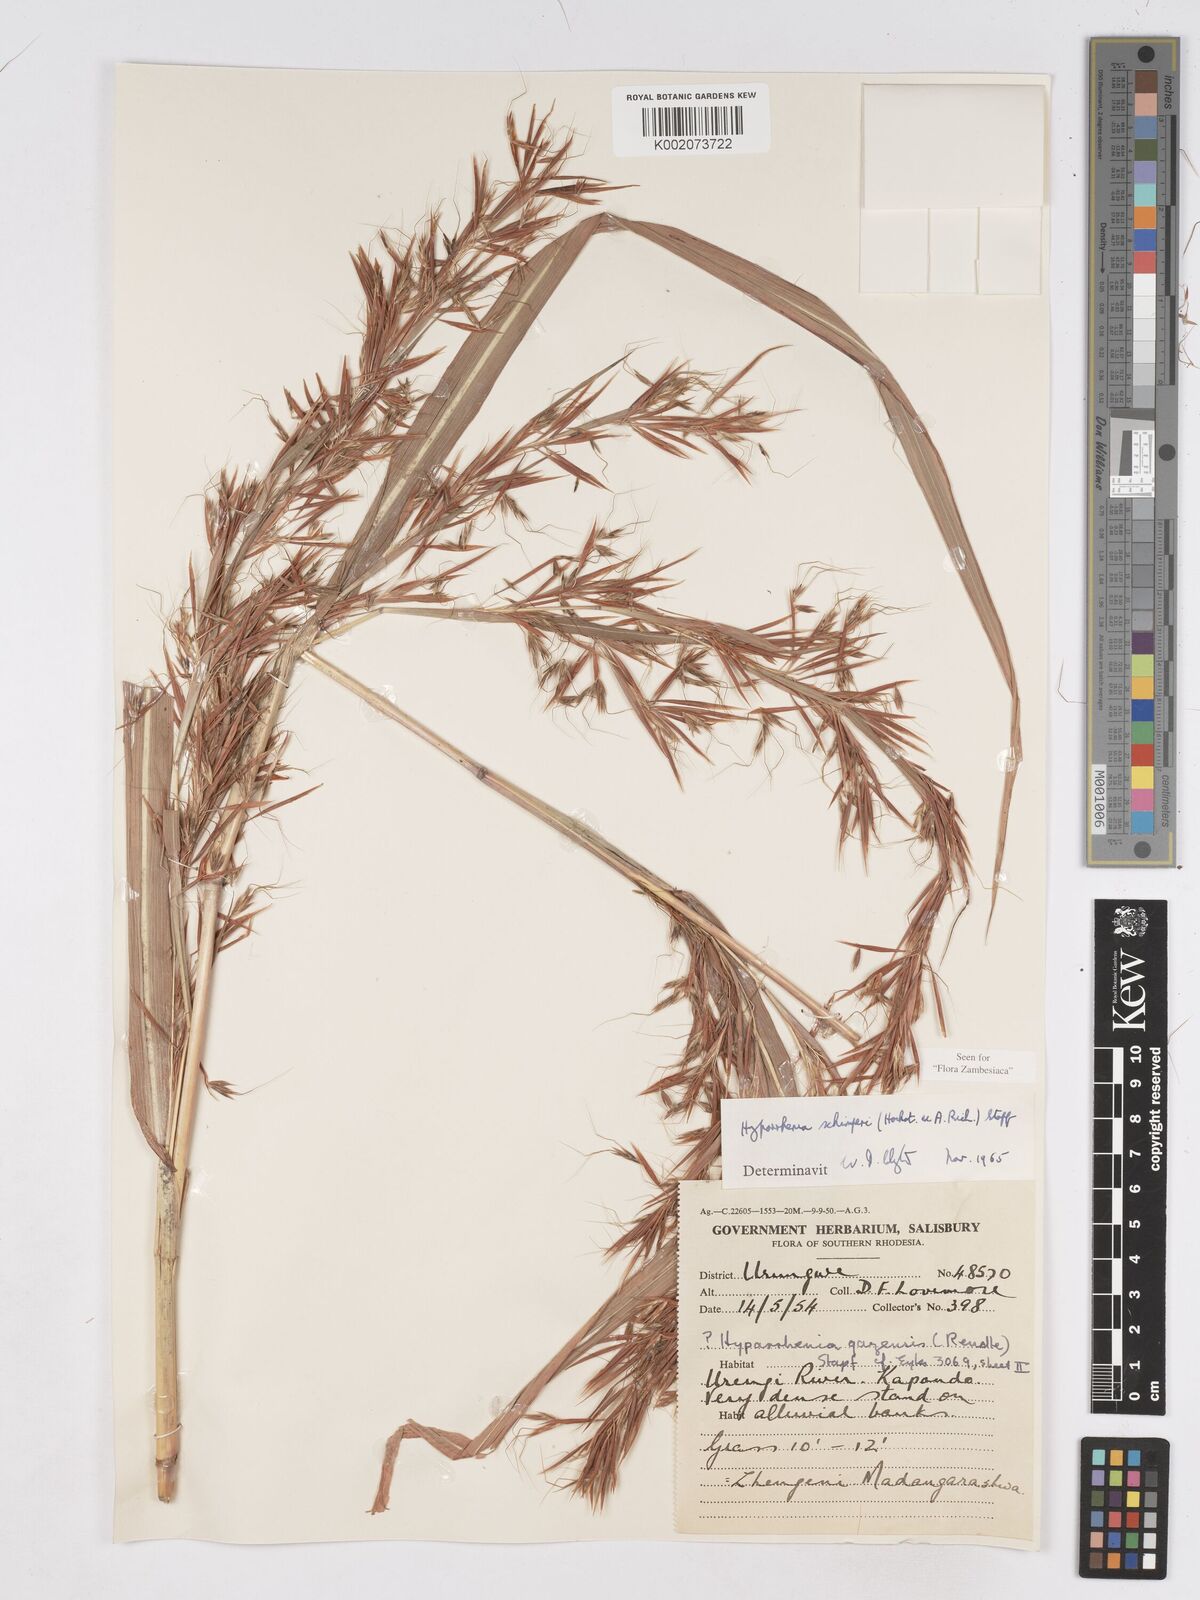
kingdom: Plantae
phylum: Tracheophyta
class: Liliopsida
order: Poales
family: Poaceae
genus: Hyparrhenia
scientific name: Hyparrhenia schimperi
